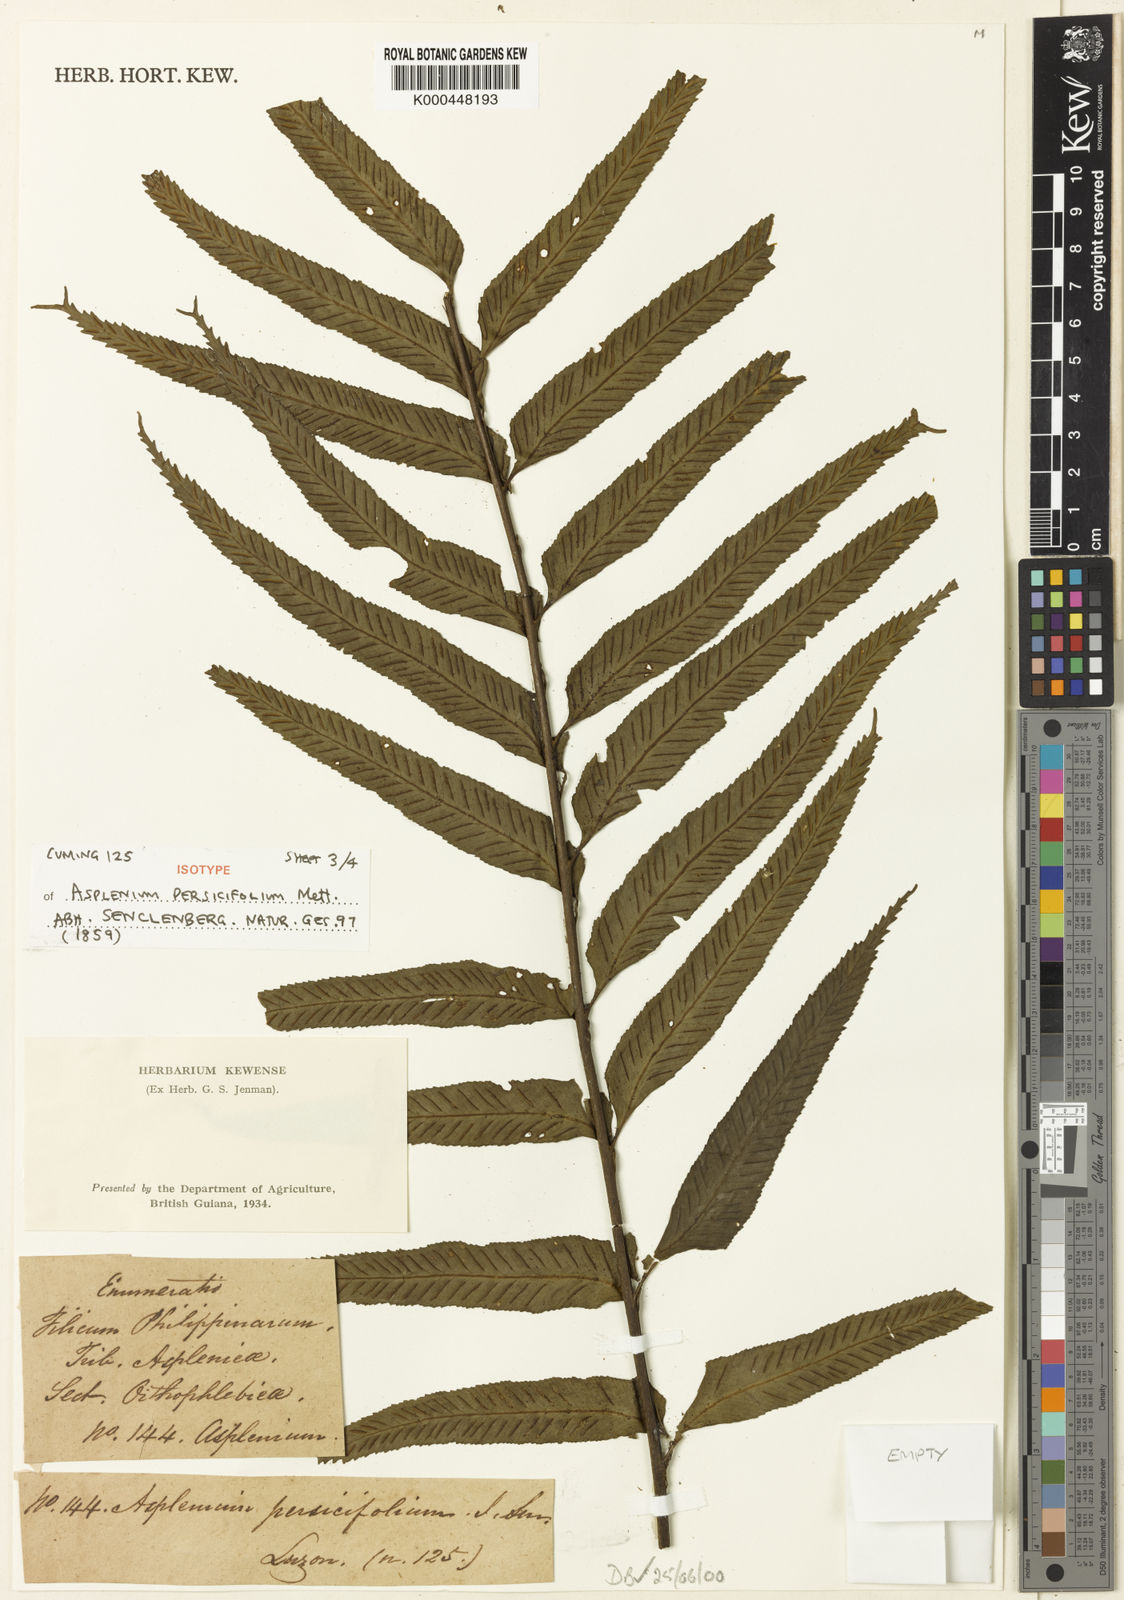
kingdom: Plantae
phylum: Tracheophyta
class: Polypodiopsida
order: Polypodiales
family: Aspleniaceae
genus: Asplenium
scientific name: Asplenium
